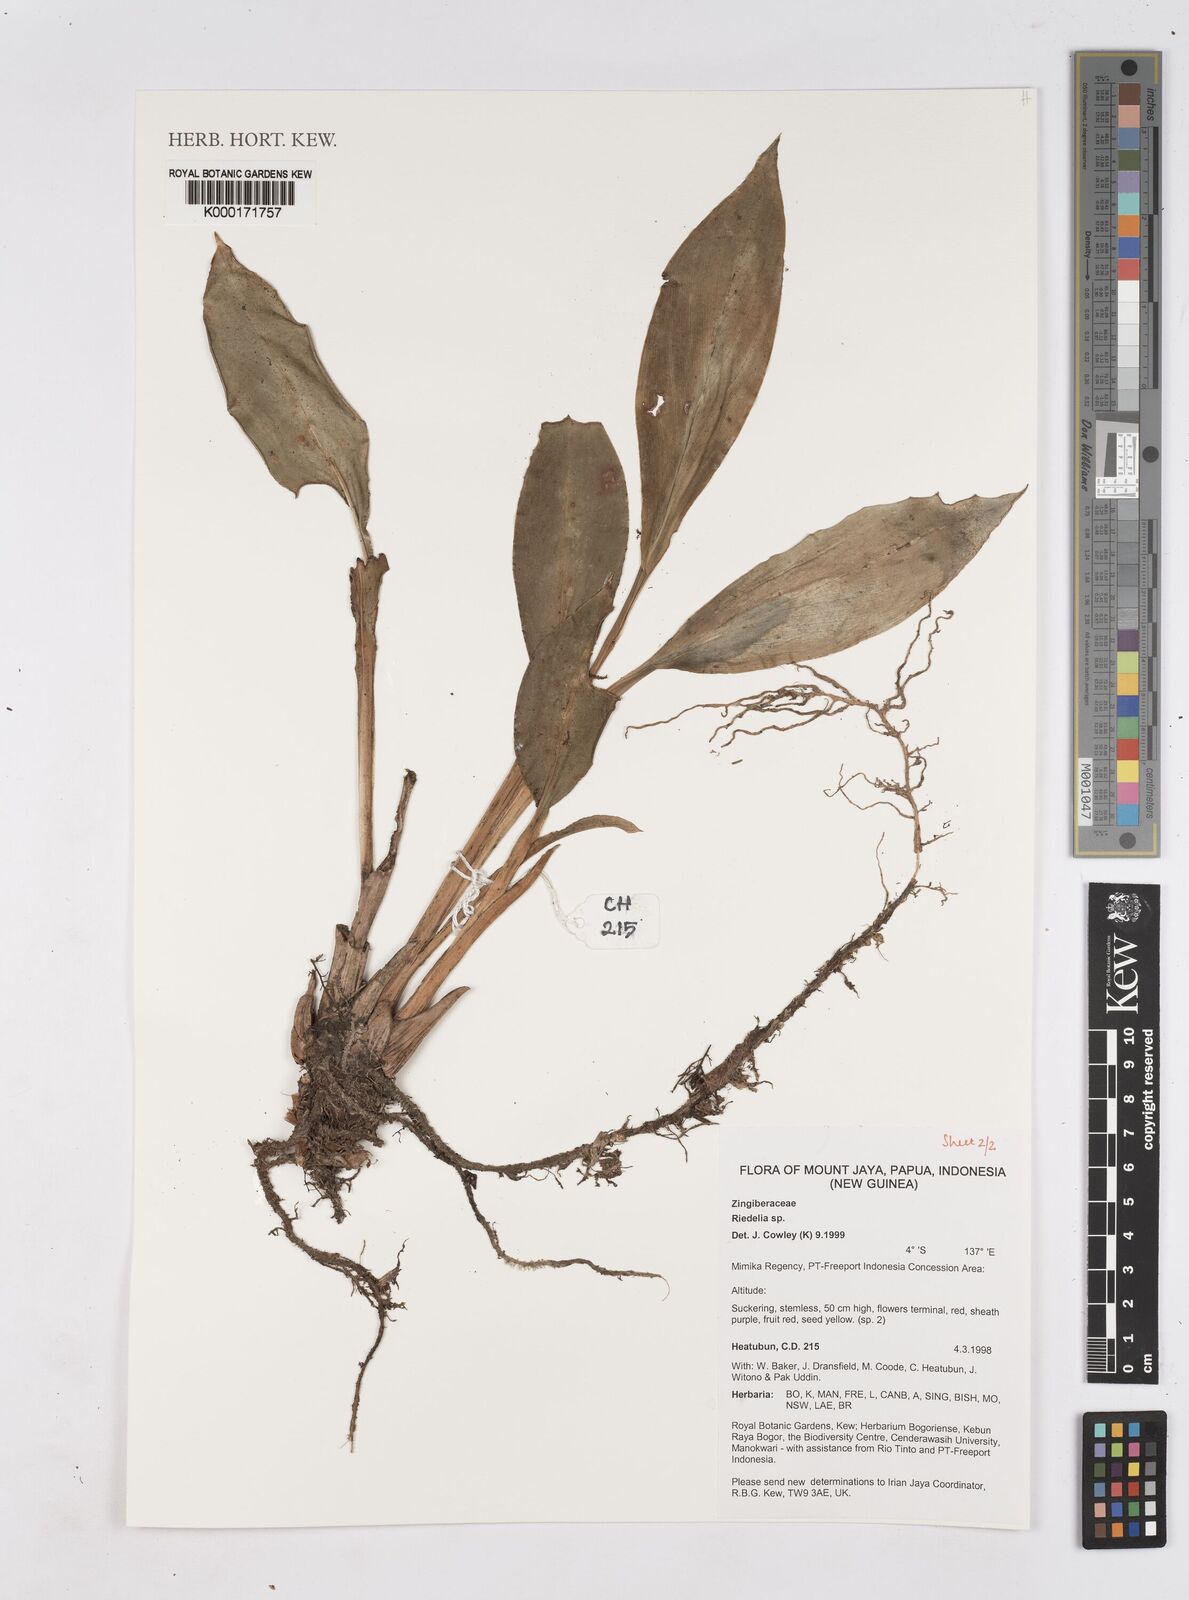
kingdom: Plantae
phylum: Tracheophyta
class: Liliopsida
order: Zingiberales
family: Zingiberaceae
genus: Riedelia
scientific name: Riedelia
